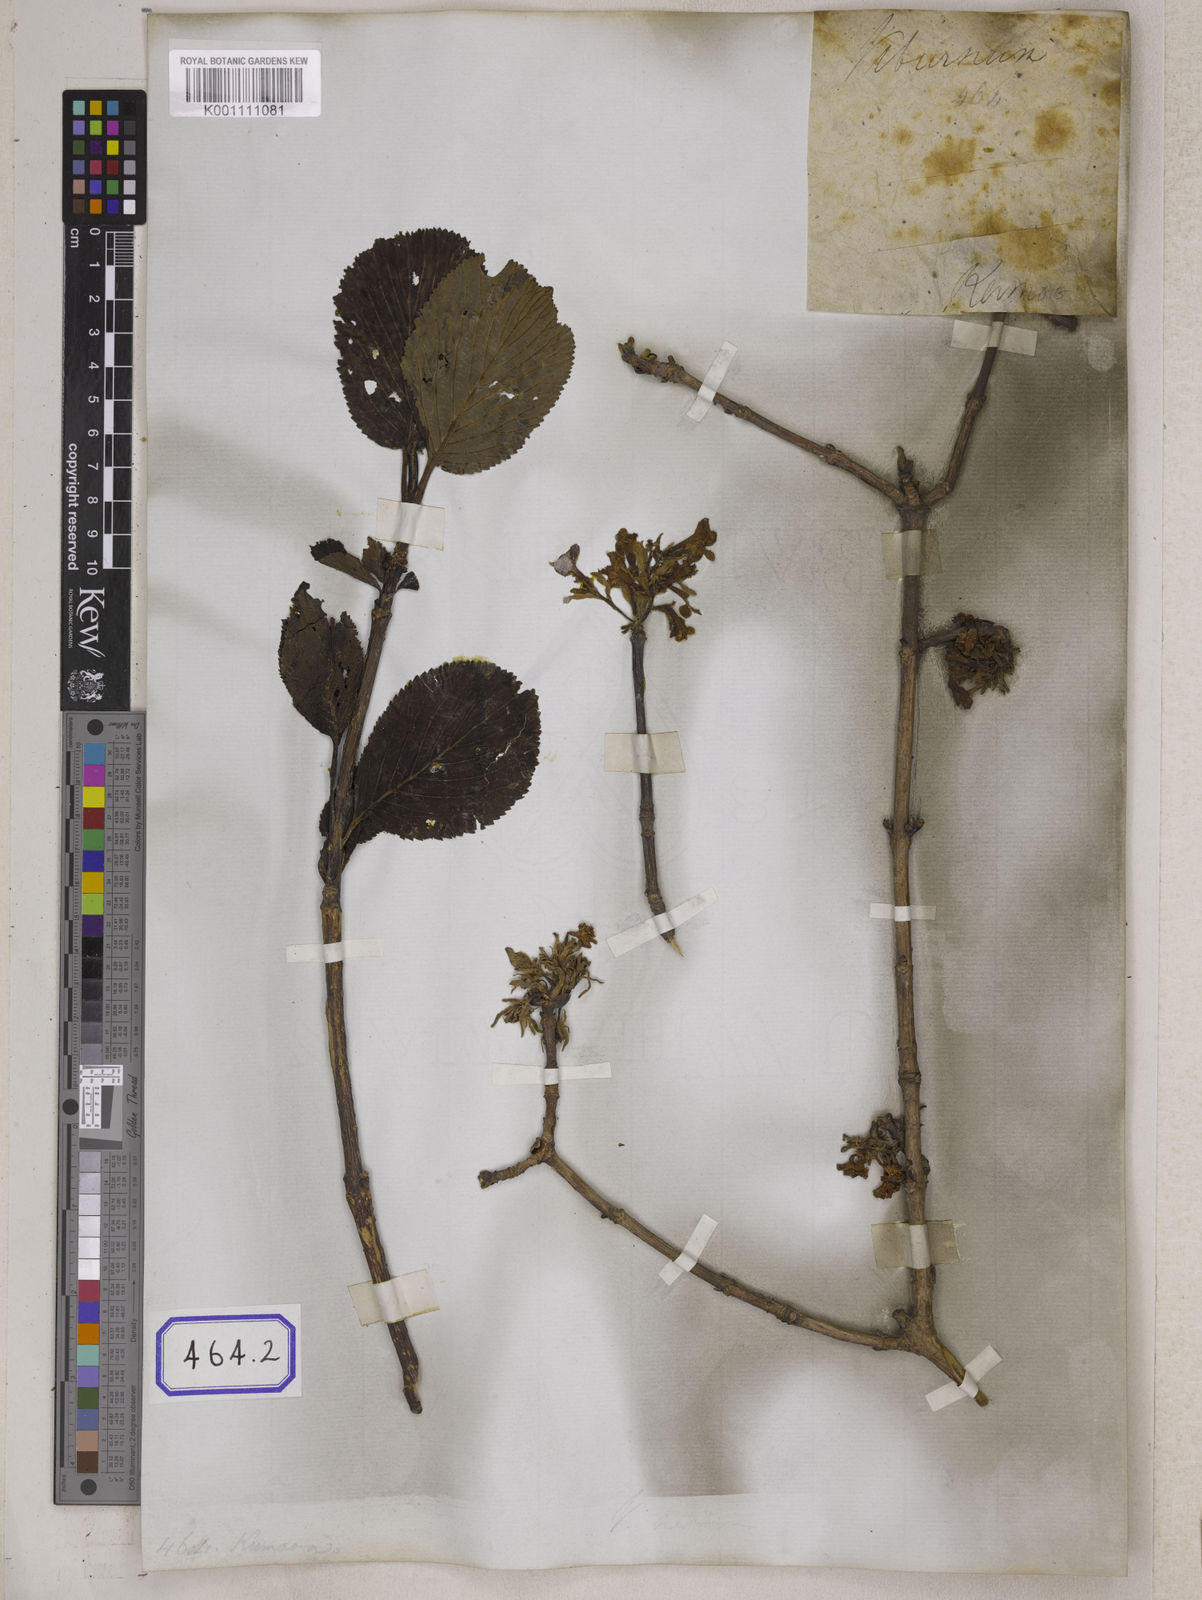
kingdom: Plantae
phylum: Tracheophyta
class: Magnoliopsida
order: Dipsacales
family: Viburnaceae
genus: Viburnum
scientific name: Viburnum
